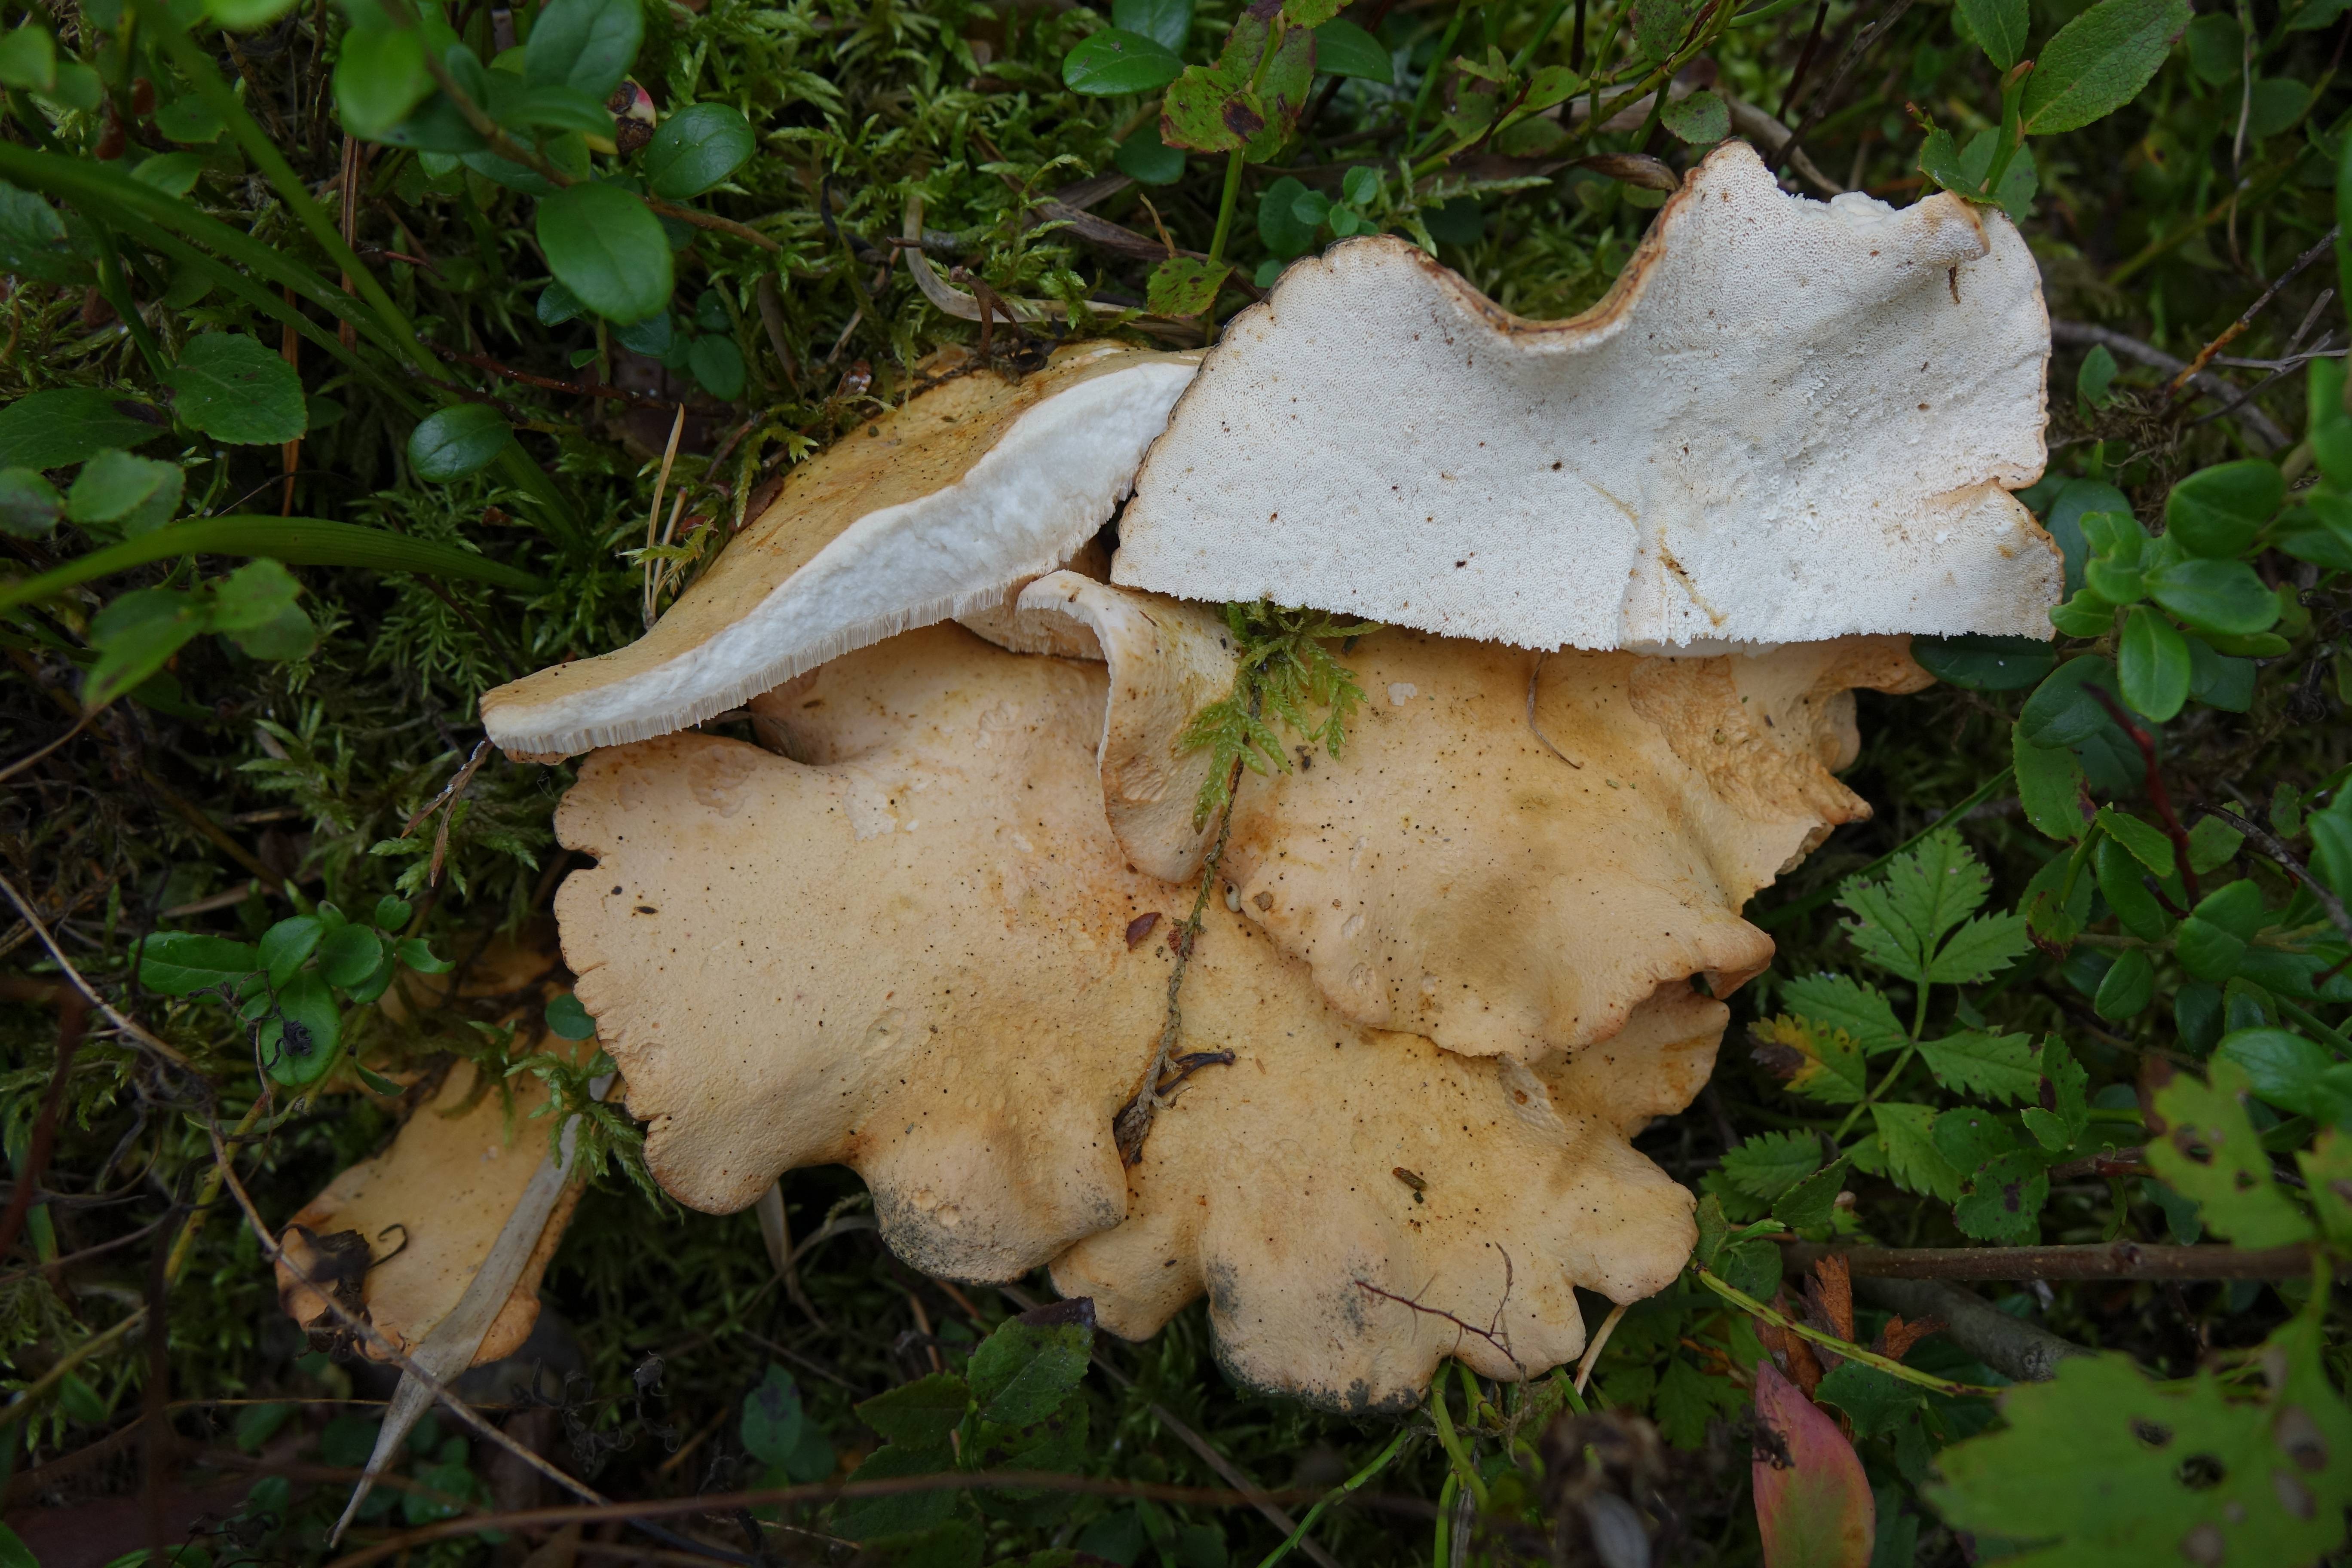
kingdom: Fungi
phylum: Basidiomycota
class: Agaricomycetes
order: Russulales
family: Albatrellaceae
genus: Albatrellopsis
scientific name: Albatrellopsis confluens
